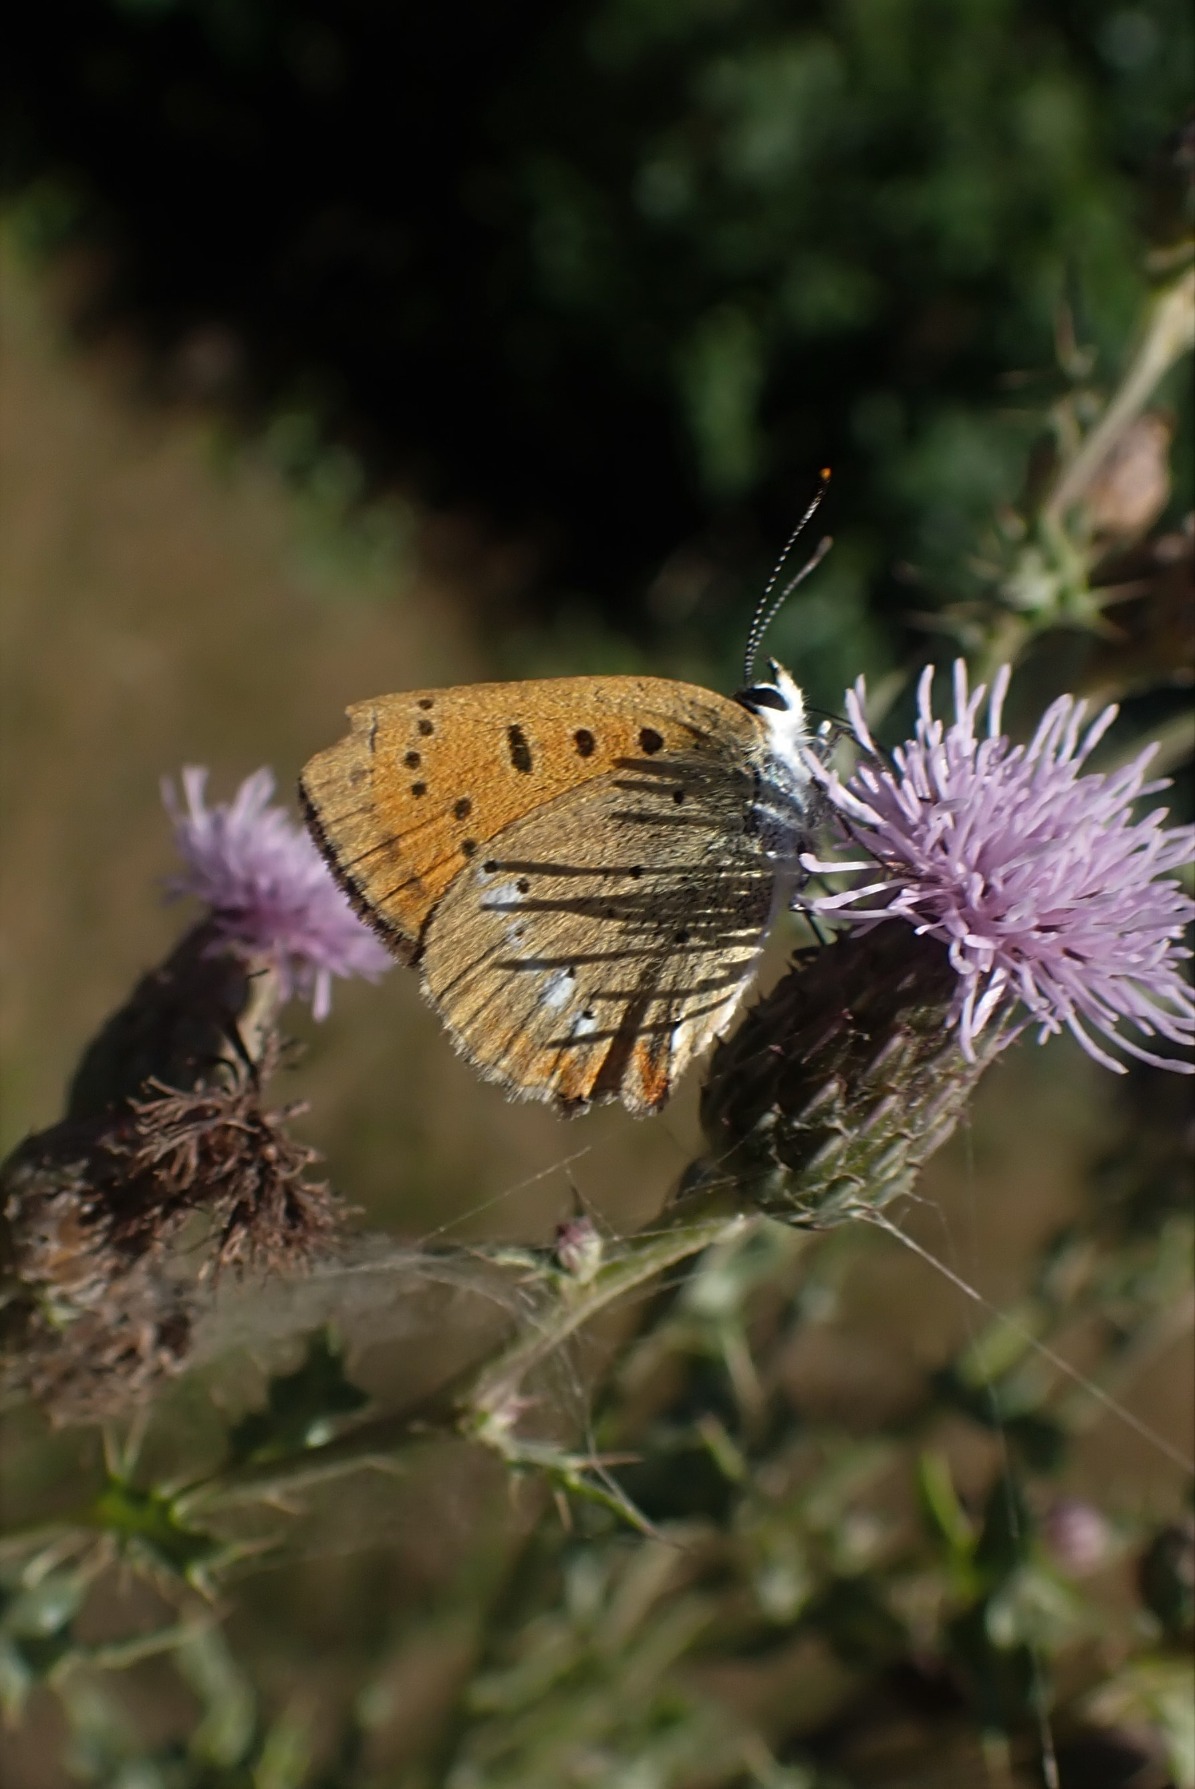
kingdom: Animalia
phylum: Arthropoda
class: Insecta
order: Lepidoptera
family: Lycaenidae
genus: Lycaena
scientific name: Lycaena virgaureae
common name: Dukatsommerfugl
